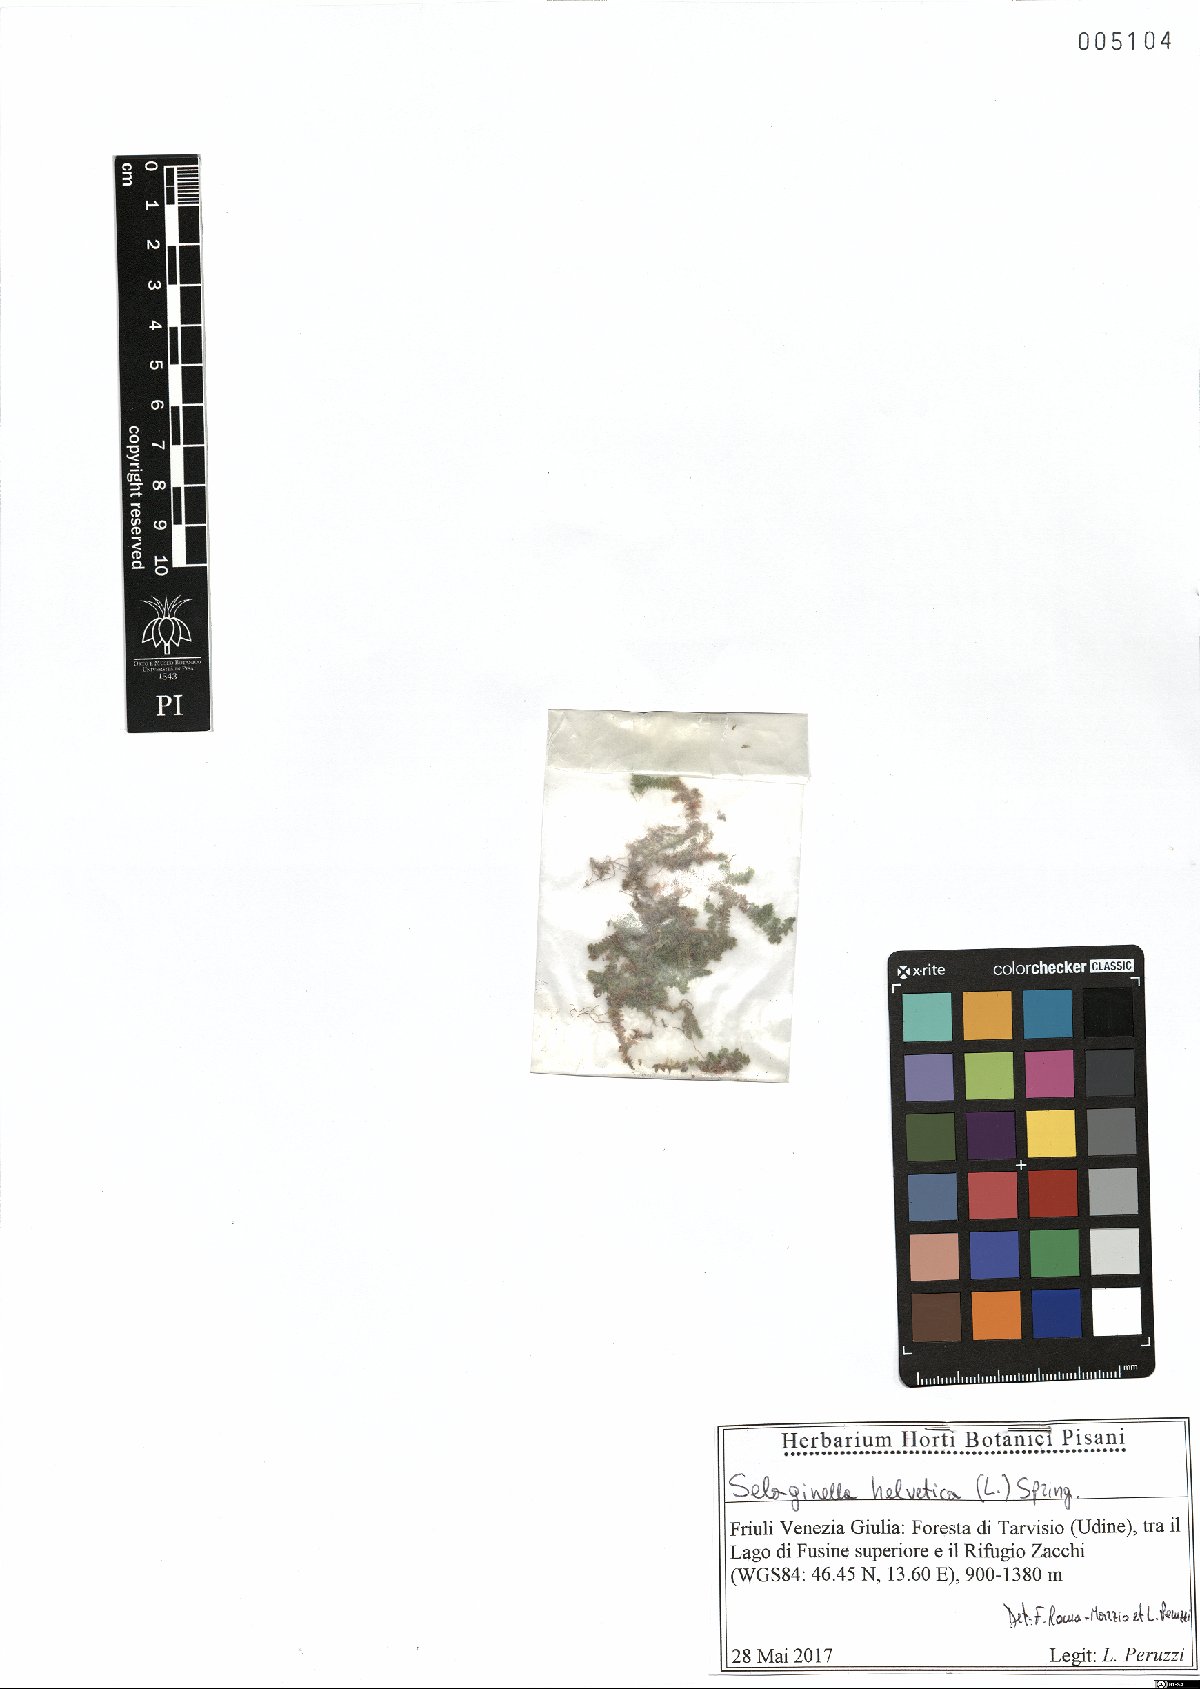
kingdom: Plantae
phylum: Tracheophyta
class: Lycopodiopsida
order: Selaginellales
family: Selaginellaceae
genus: Selaginella
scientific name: Selaginella helvetica
